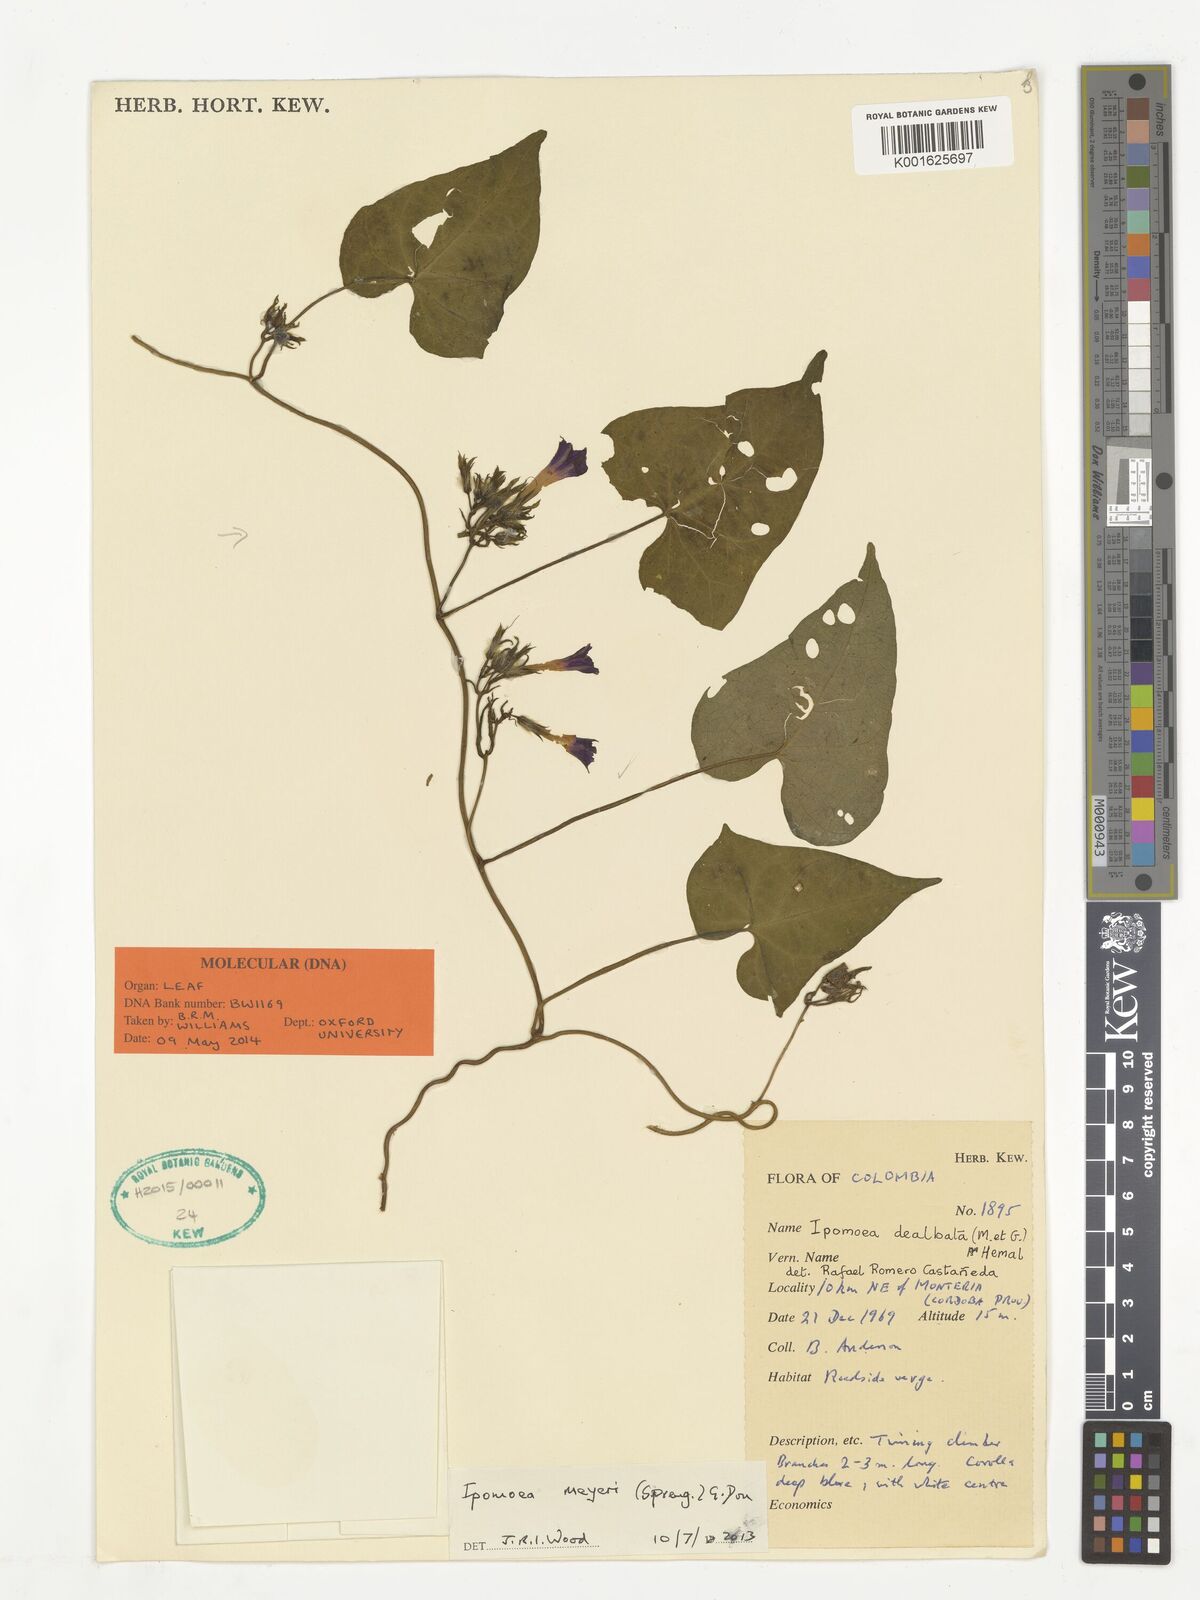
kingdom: Plantae
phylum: Tracheophyta
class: Magnoliopsida
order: Solanales
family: Convolvulaceae
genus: Ipomoea
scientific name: Ipomoea meyeri
